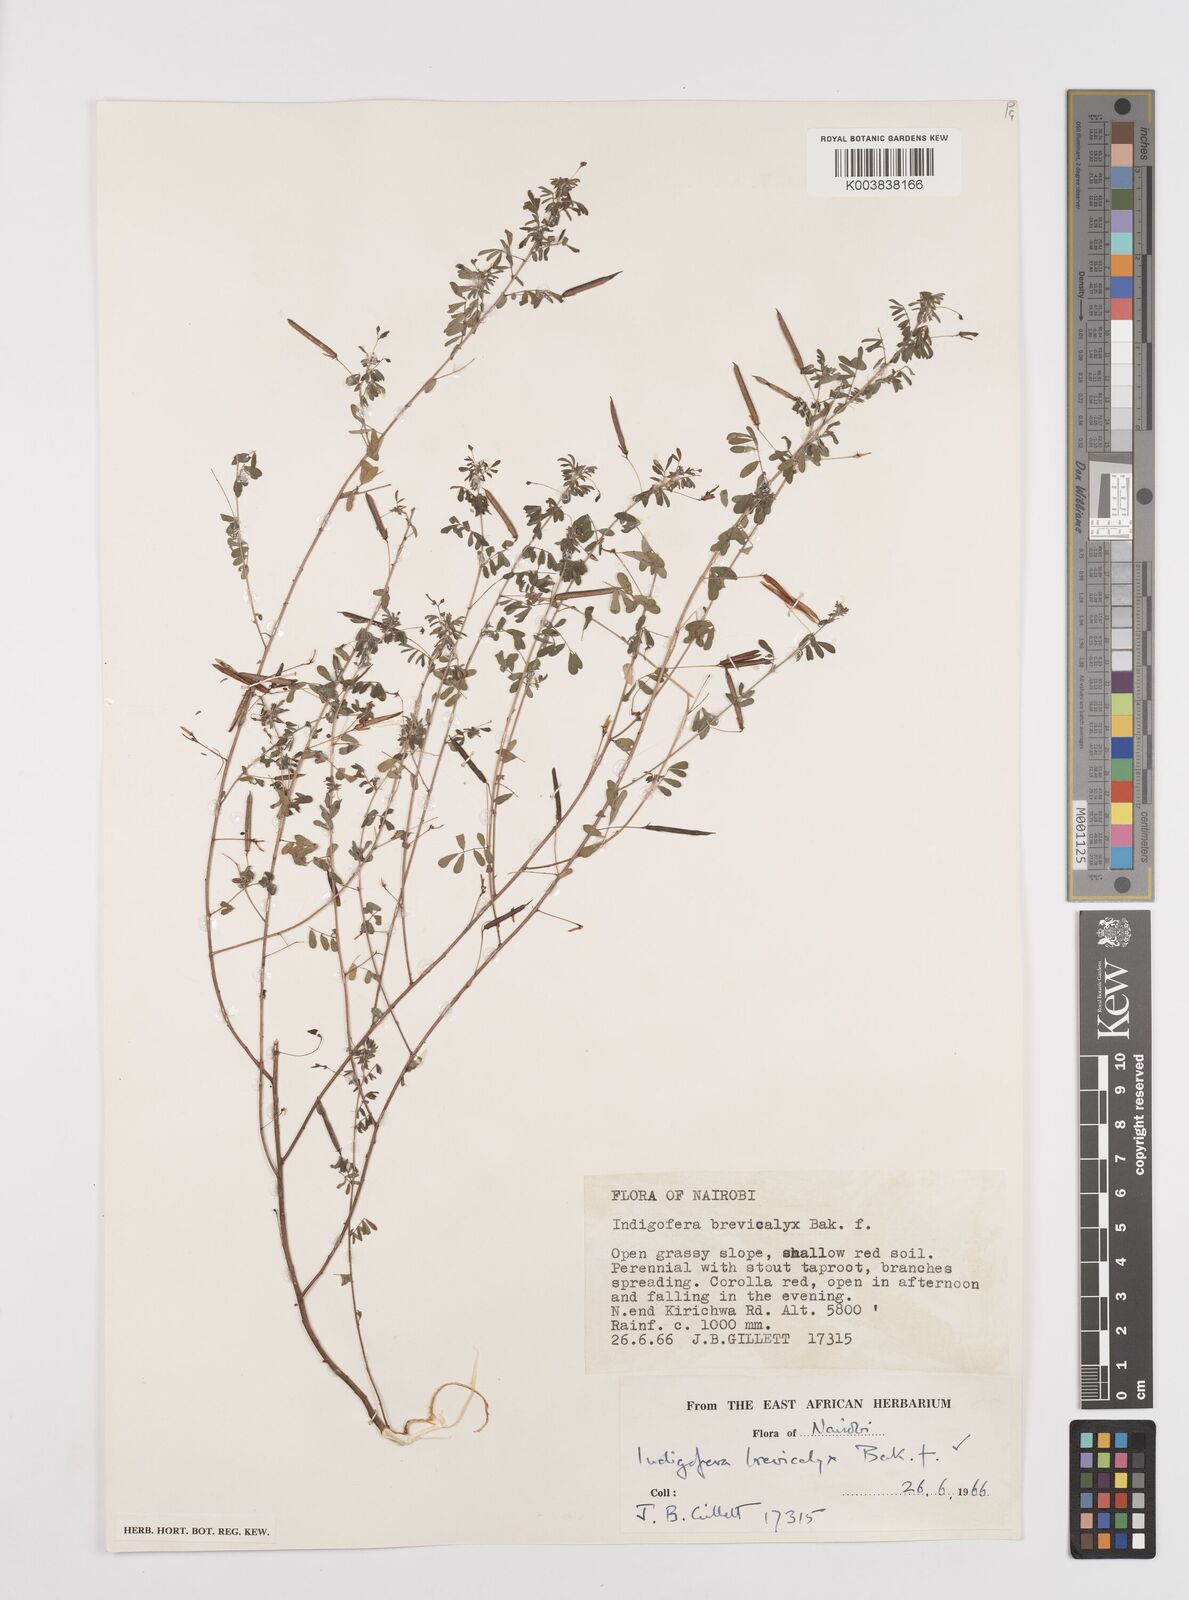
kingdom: Plantae
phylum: Tracheophyta
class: Magnoliopsida
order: Fabales
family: Fabaceae
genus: Indigofera
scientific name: Indigofera brevicalyx
